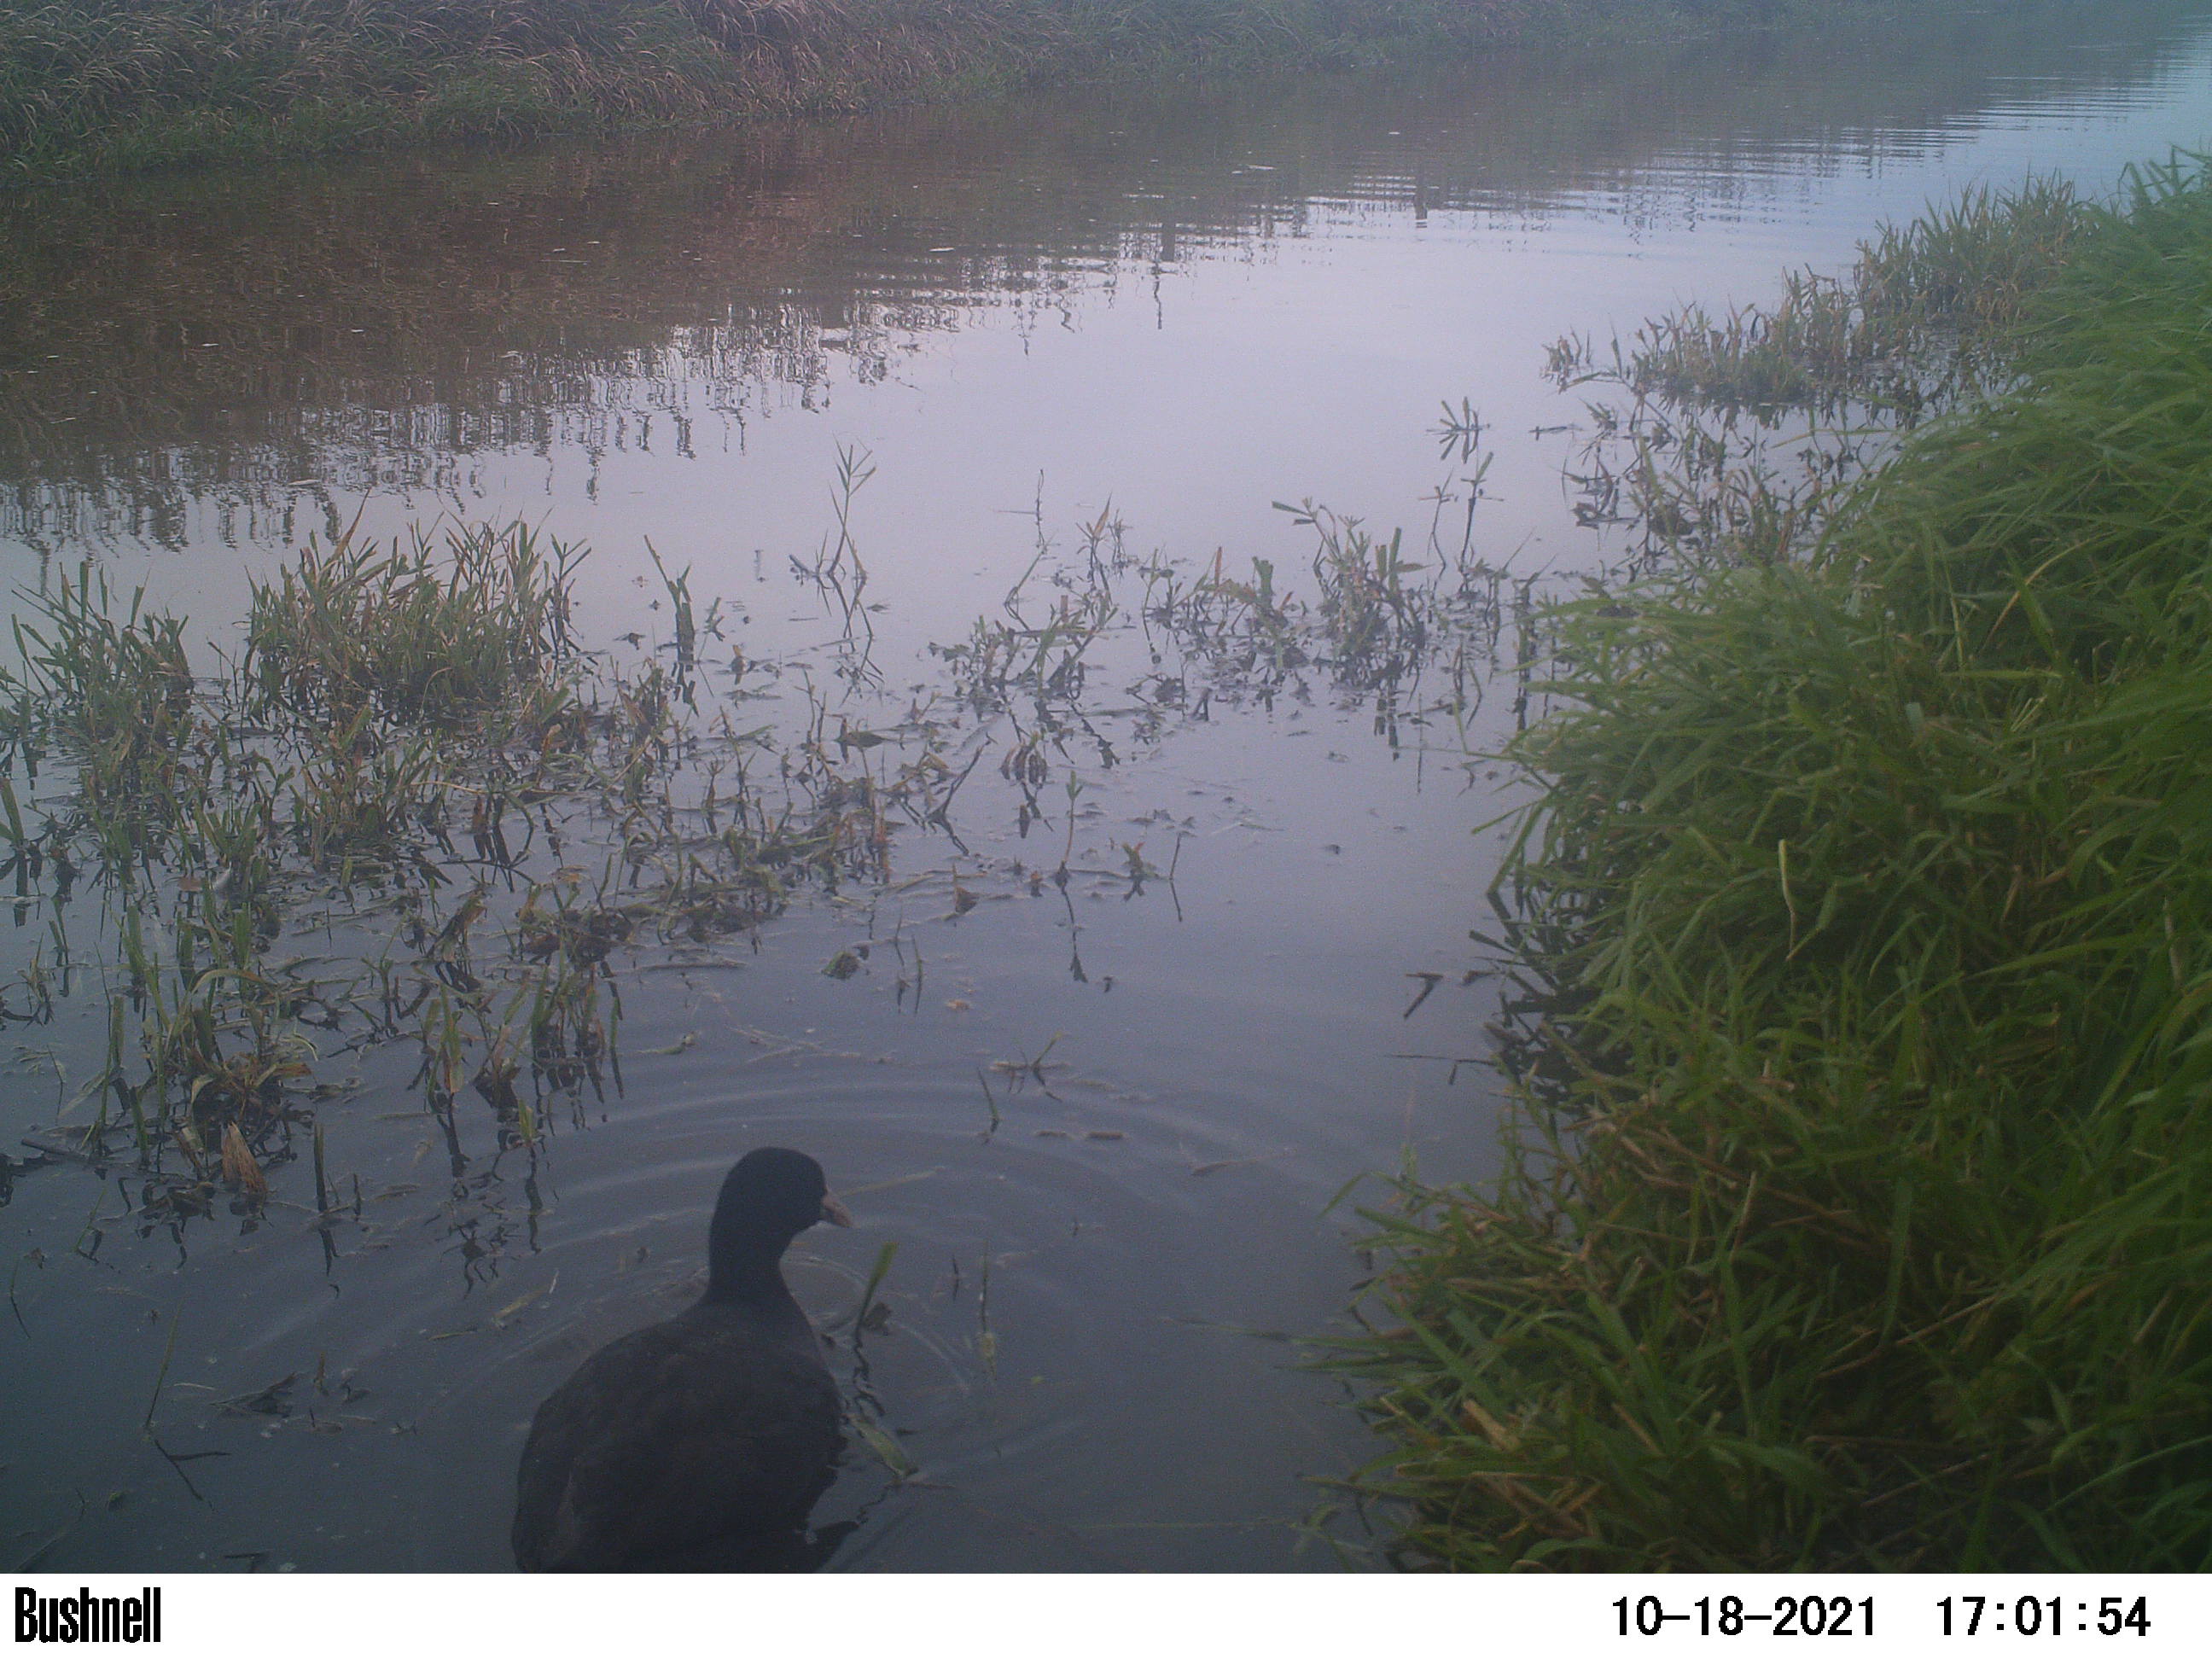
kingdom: Animalia
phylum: Chordata
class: Aves
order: Gruiformes
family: Rallidae
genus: Fulica
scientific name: Fulica atra
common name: Eurasian coot
